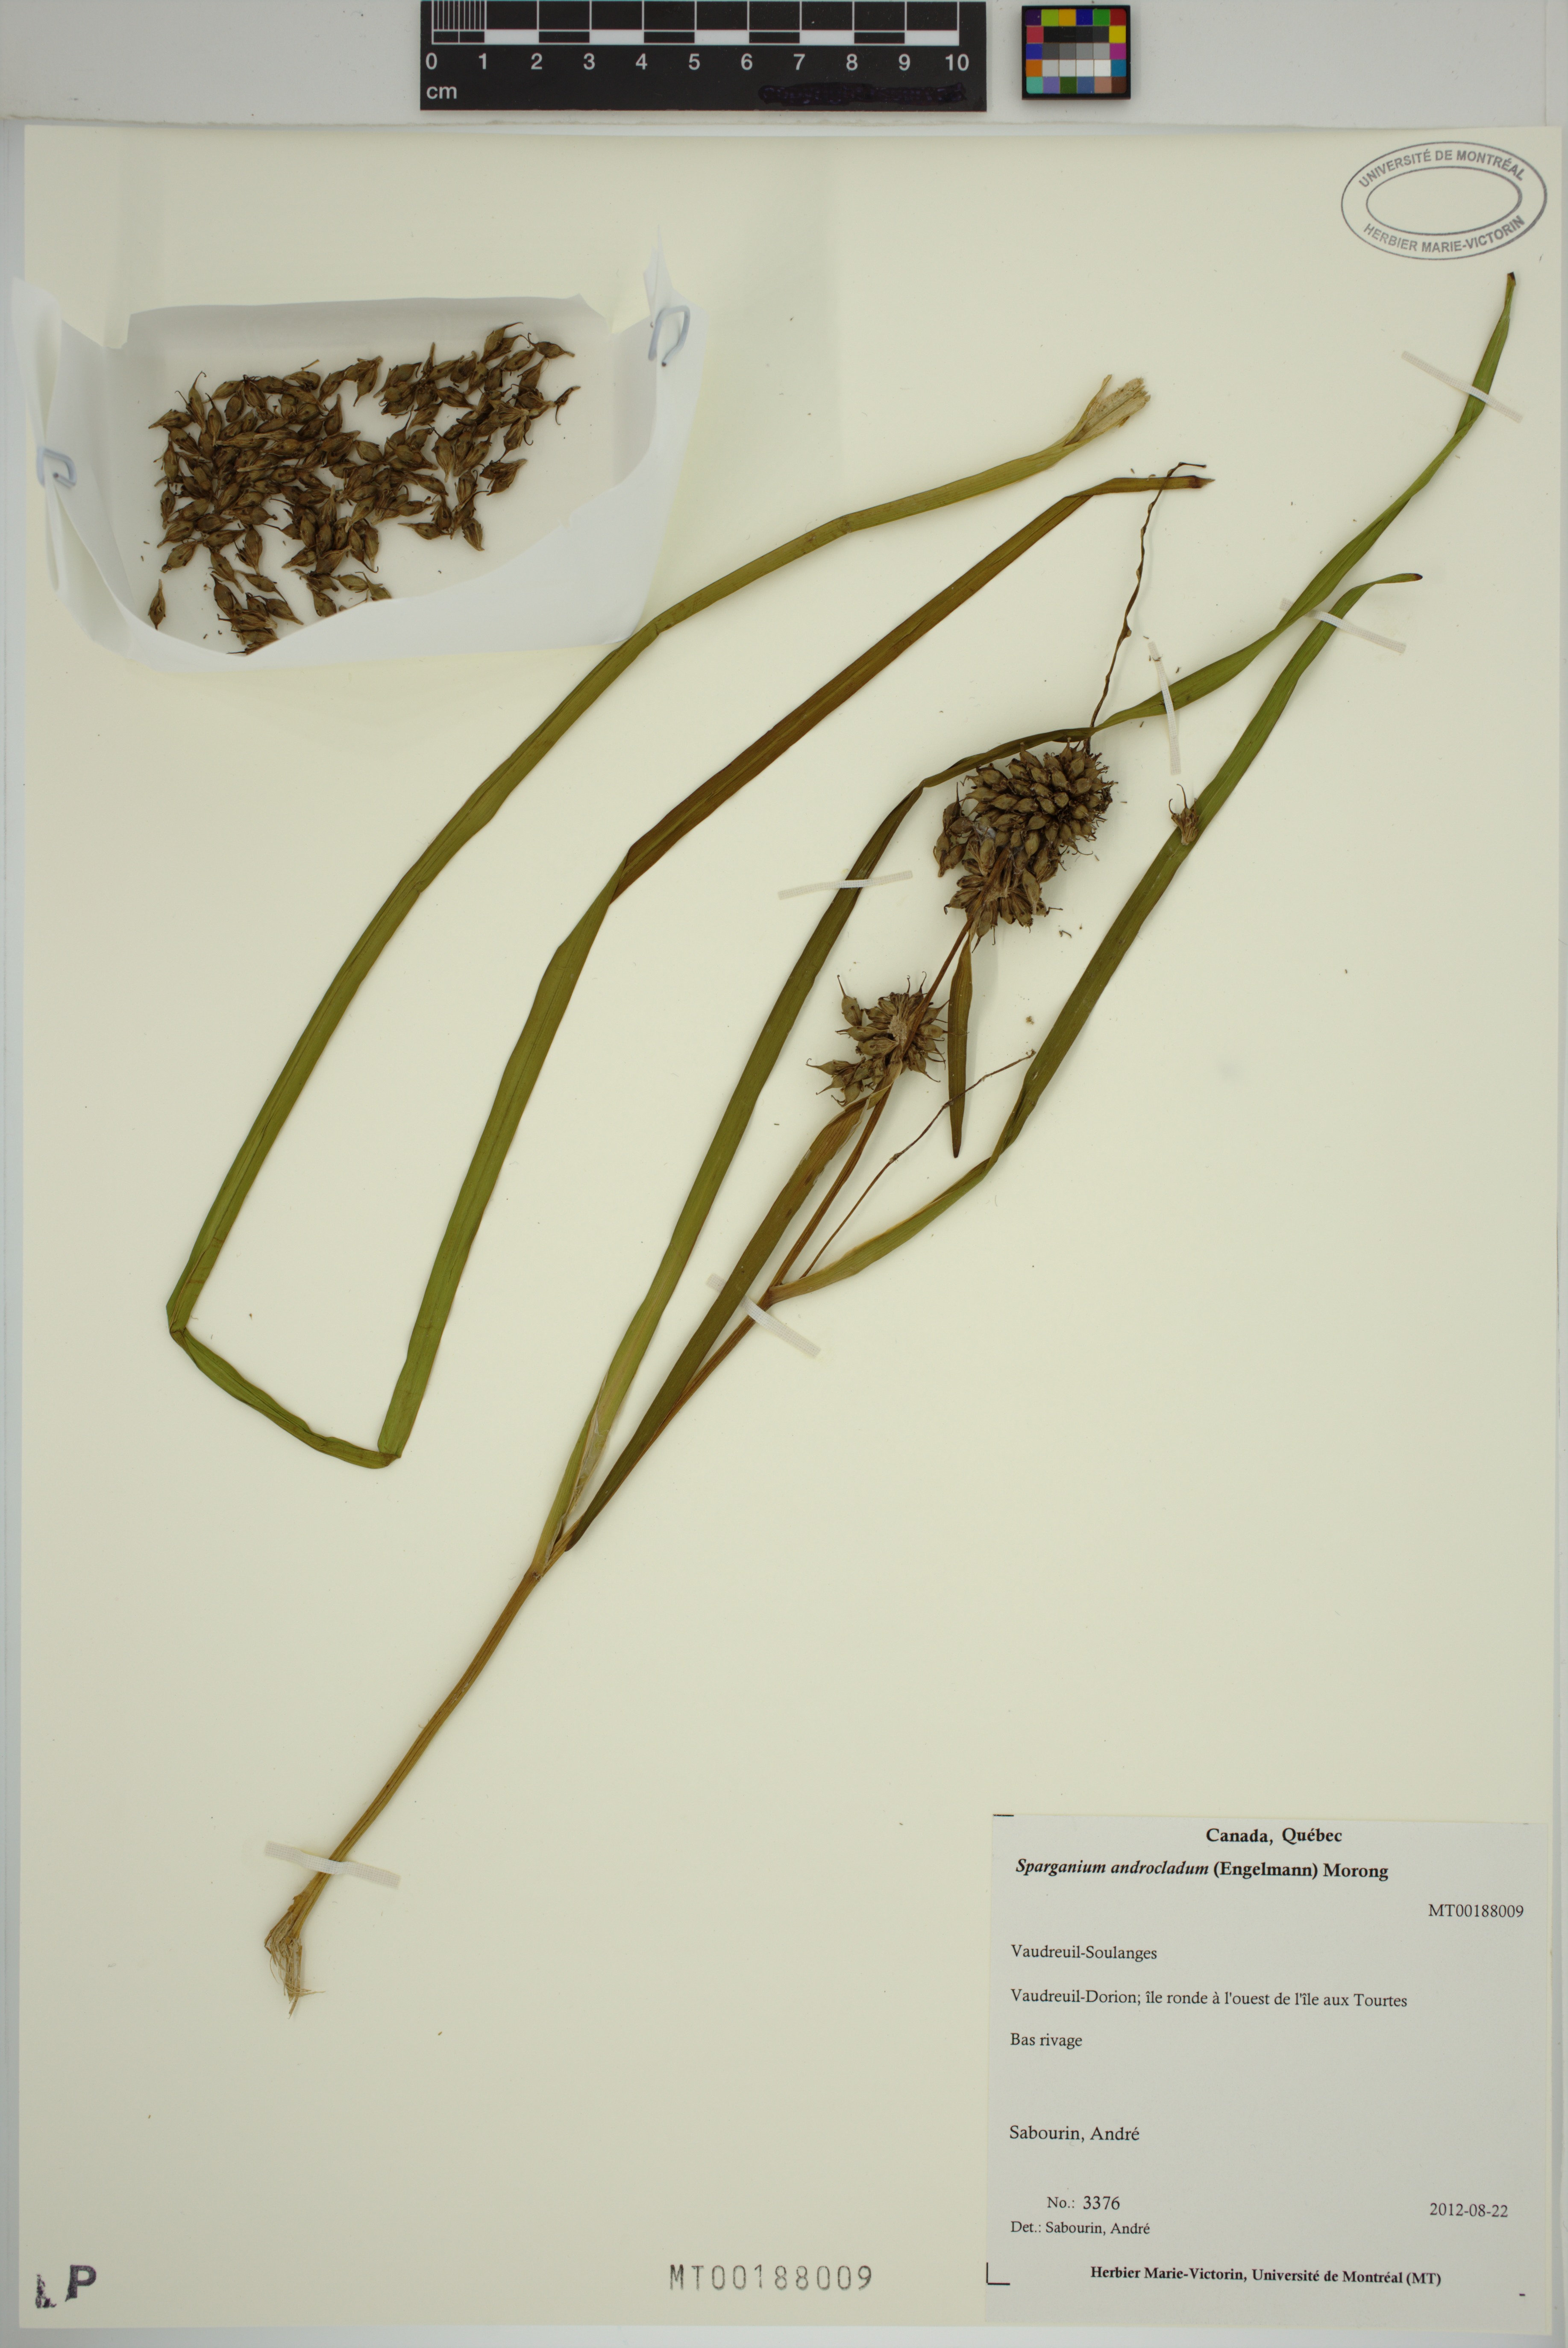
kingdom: Plantae
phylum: Tracheophyta
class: Liliopsida
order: Poales
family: Typhaceae
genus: Sparganium
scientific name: Sparganium androcladum
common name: Branched burreed
